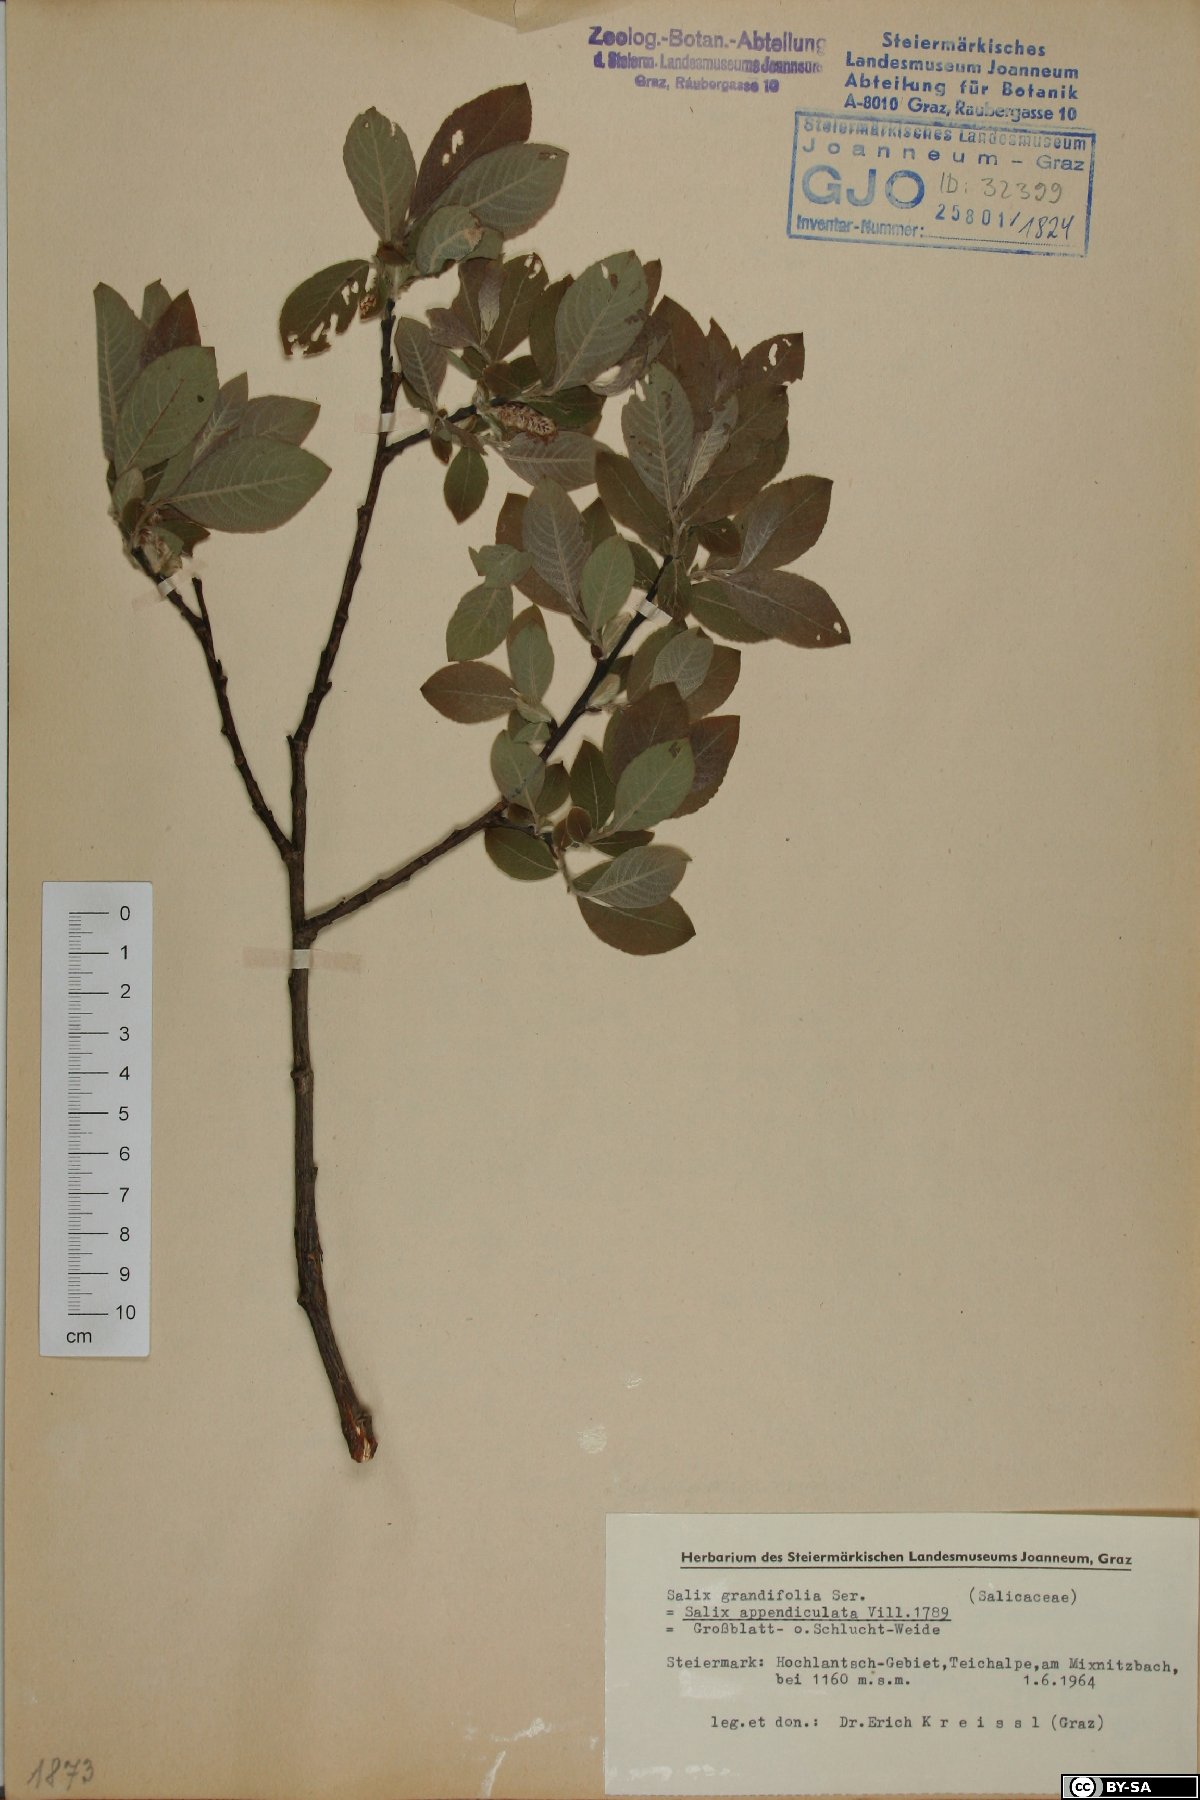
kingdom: Plantae
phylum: Tracheophyta
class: Magnoliopsida
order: Malpighiales
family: Salicaceae
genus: Salix
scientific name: Salix appendiculata
